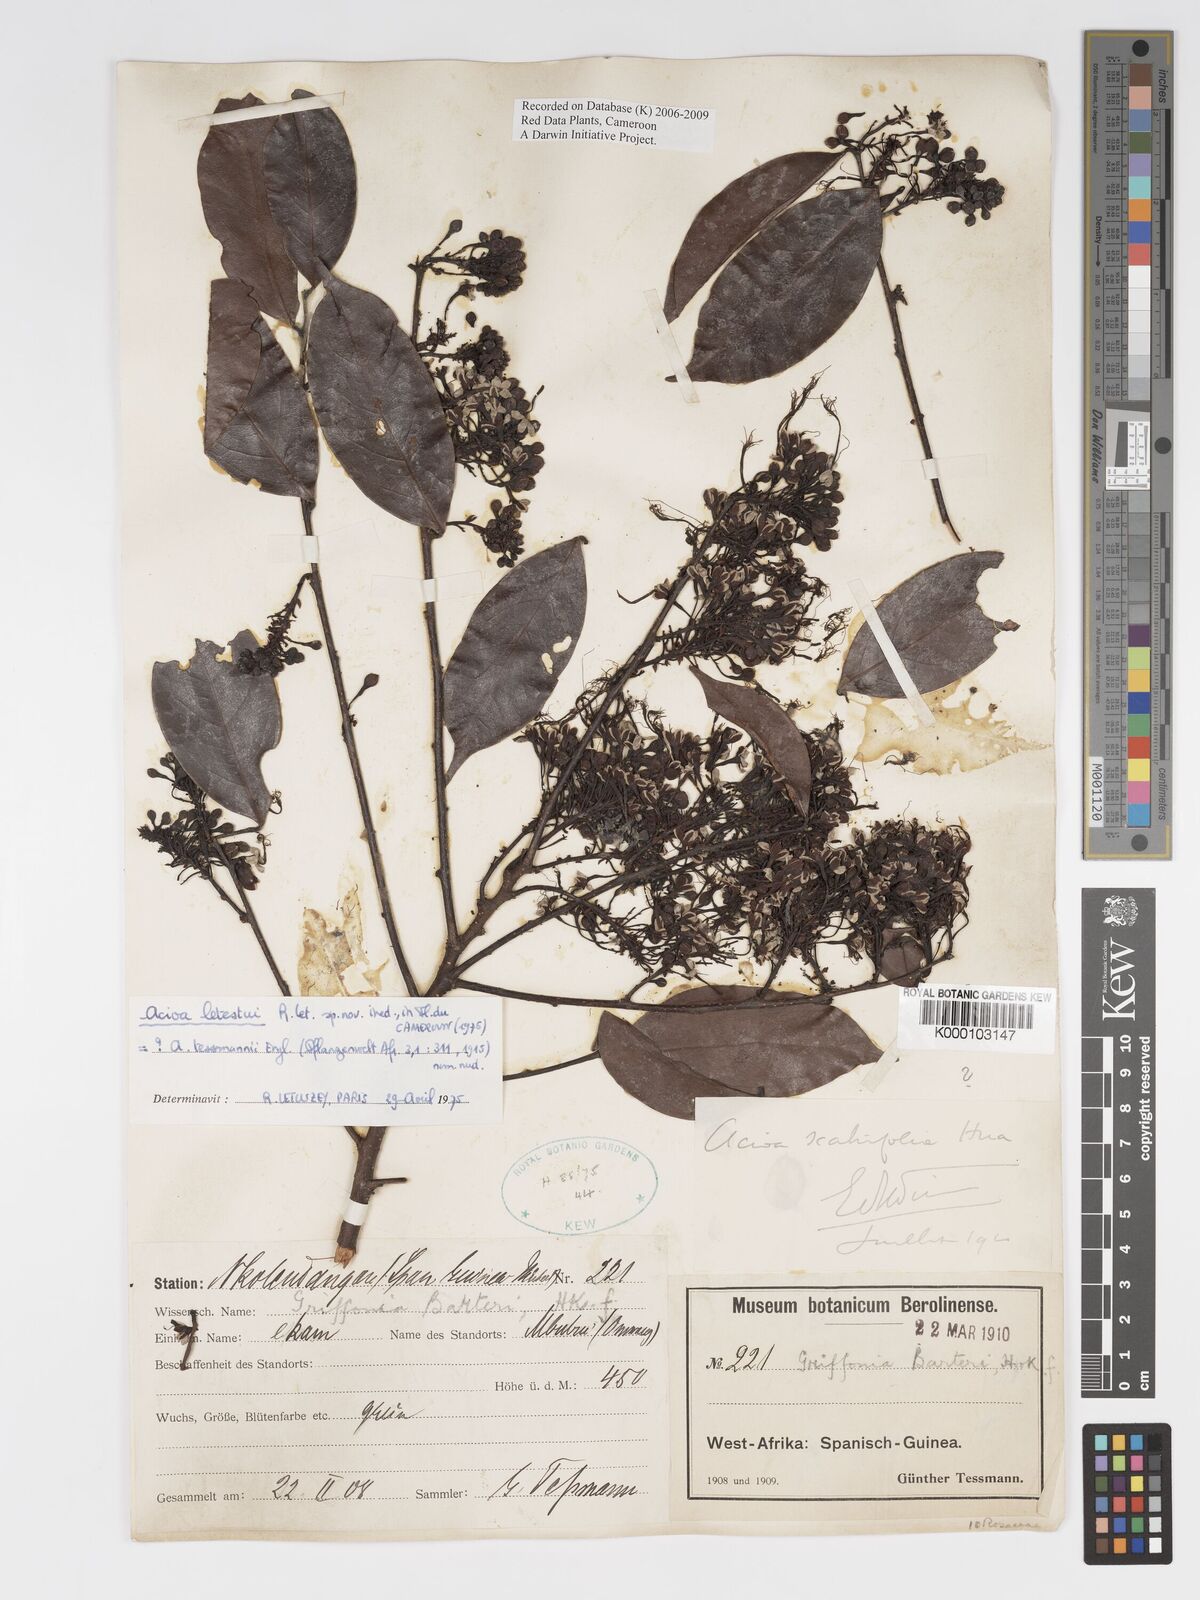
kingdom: Plantae
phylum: Tracheophyta
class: Magnoliopsida
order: Malpighiales
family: Chrysobalanaceae
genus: Dactyladenia
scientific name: Dactyladenia letestui
